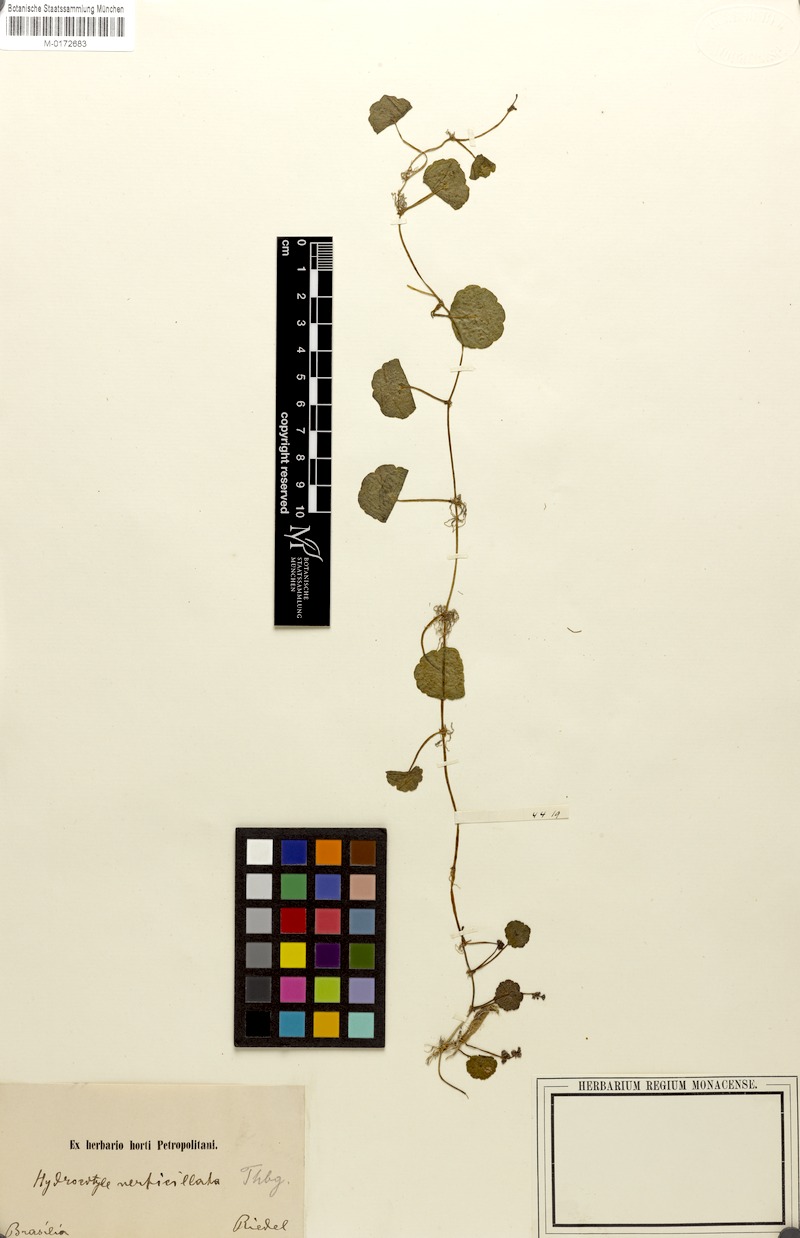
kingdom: Plantae
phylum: Tracheophyta
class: Magnoliopsida
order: Apiales
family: Araliaceae
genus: Hydrocotyle
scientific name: Hydrocotyle umbellata
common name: Water pennywort
